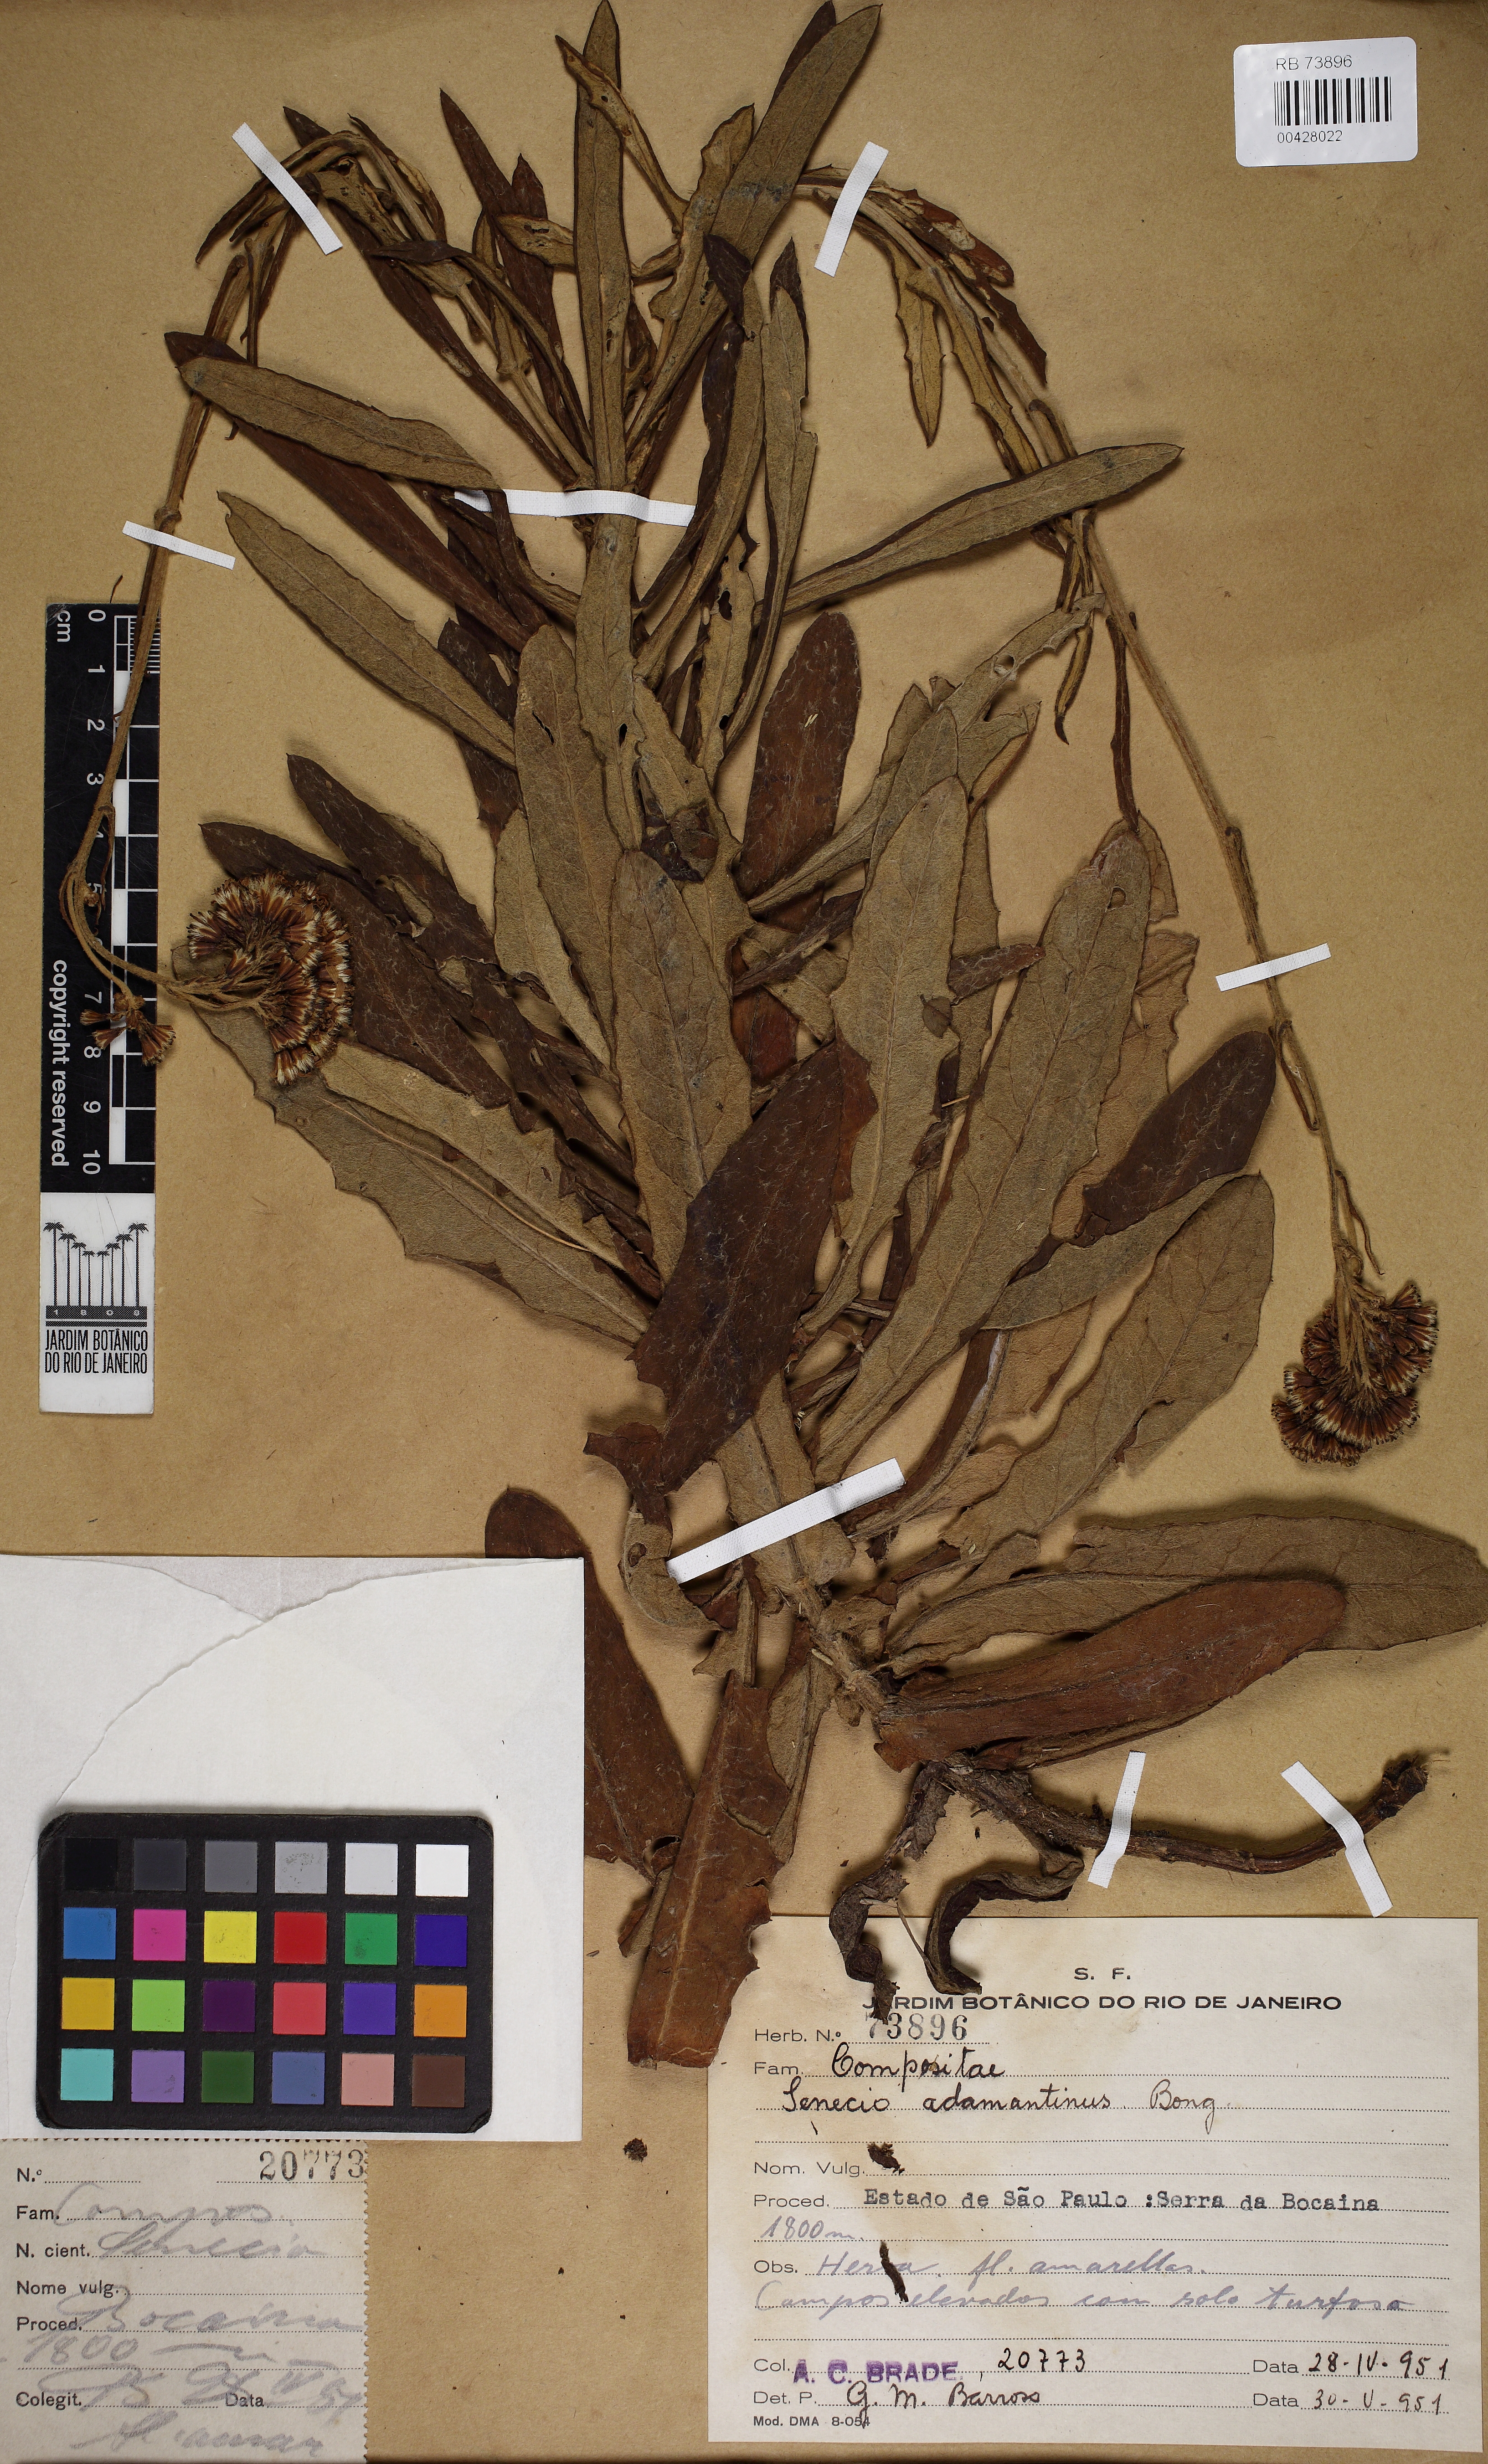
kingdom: Plantae
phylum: Tracheophyta
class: Magnoliopsida
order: Asterales
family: Asteraceae
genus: Senecio
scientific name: Senecio adamantinus
